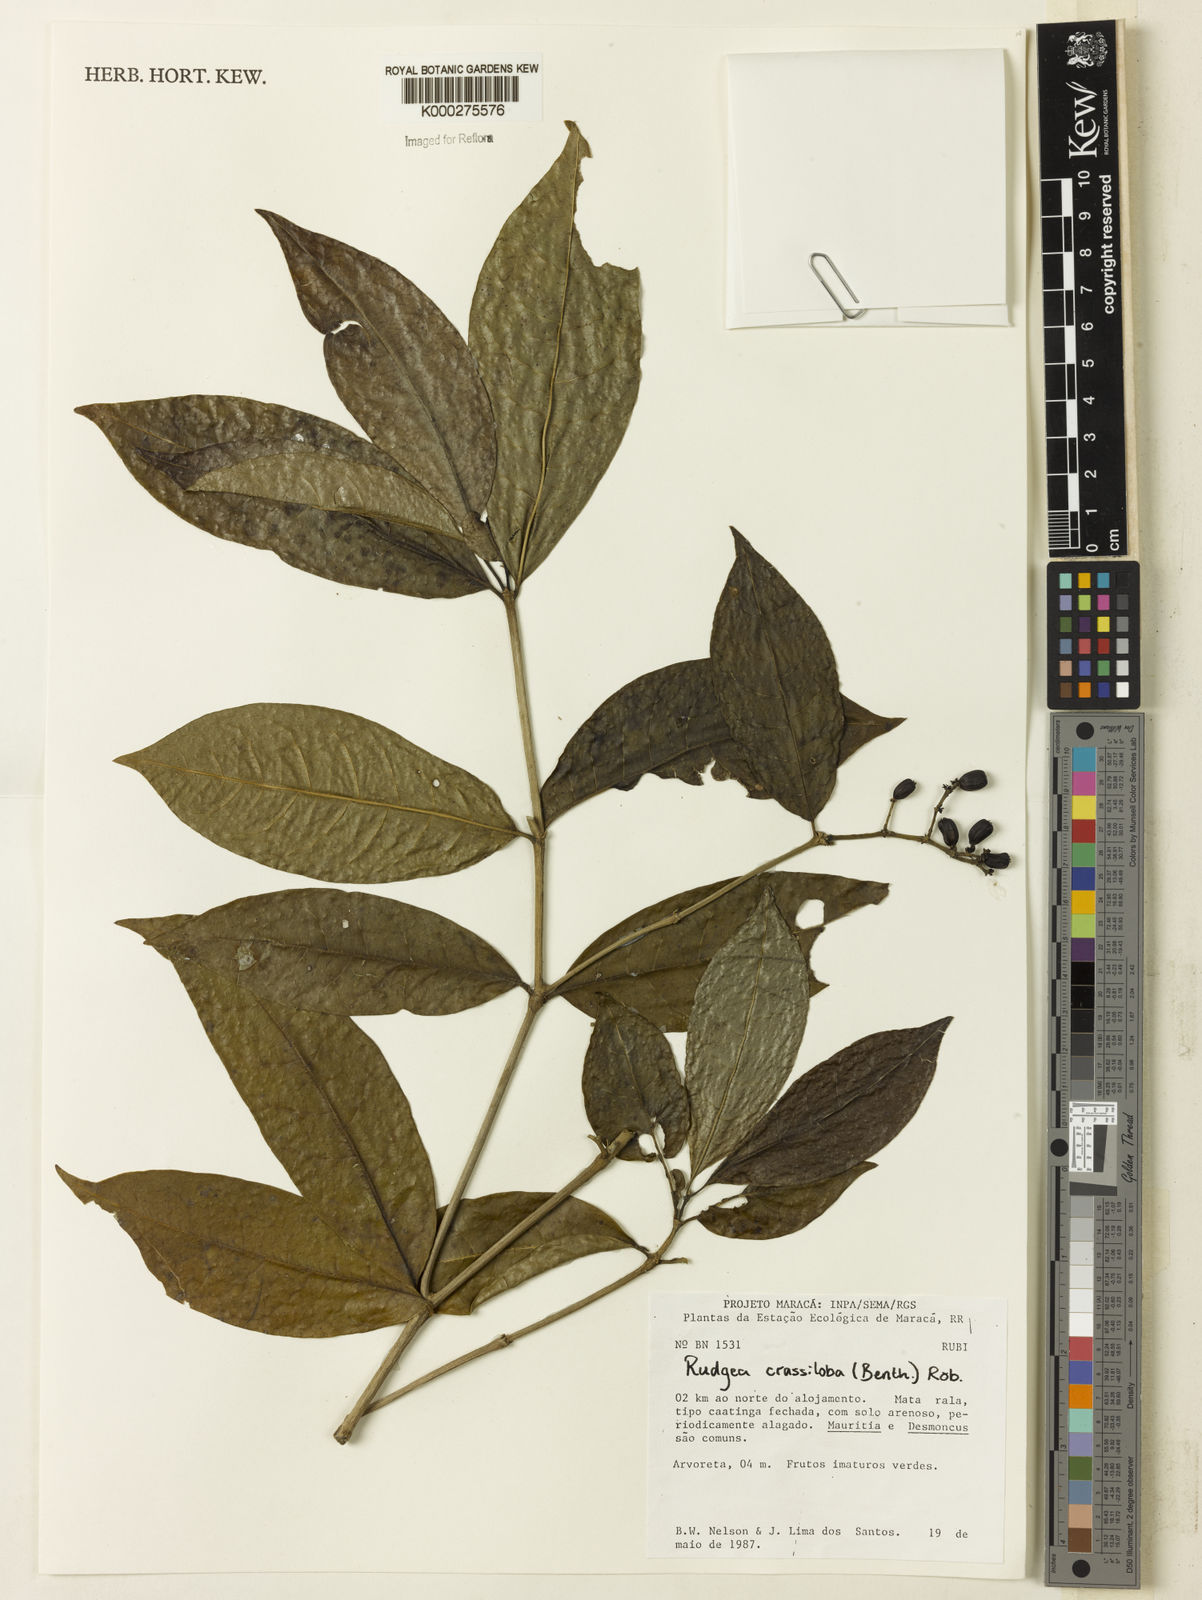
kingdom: Plantae
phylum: Tracheophyta
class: Magnoliopsida
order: Gentianales
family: Rubiaceae
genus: Rudgea
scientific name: Rudgea crassiloba
